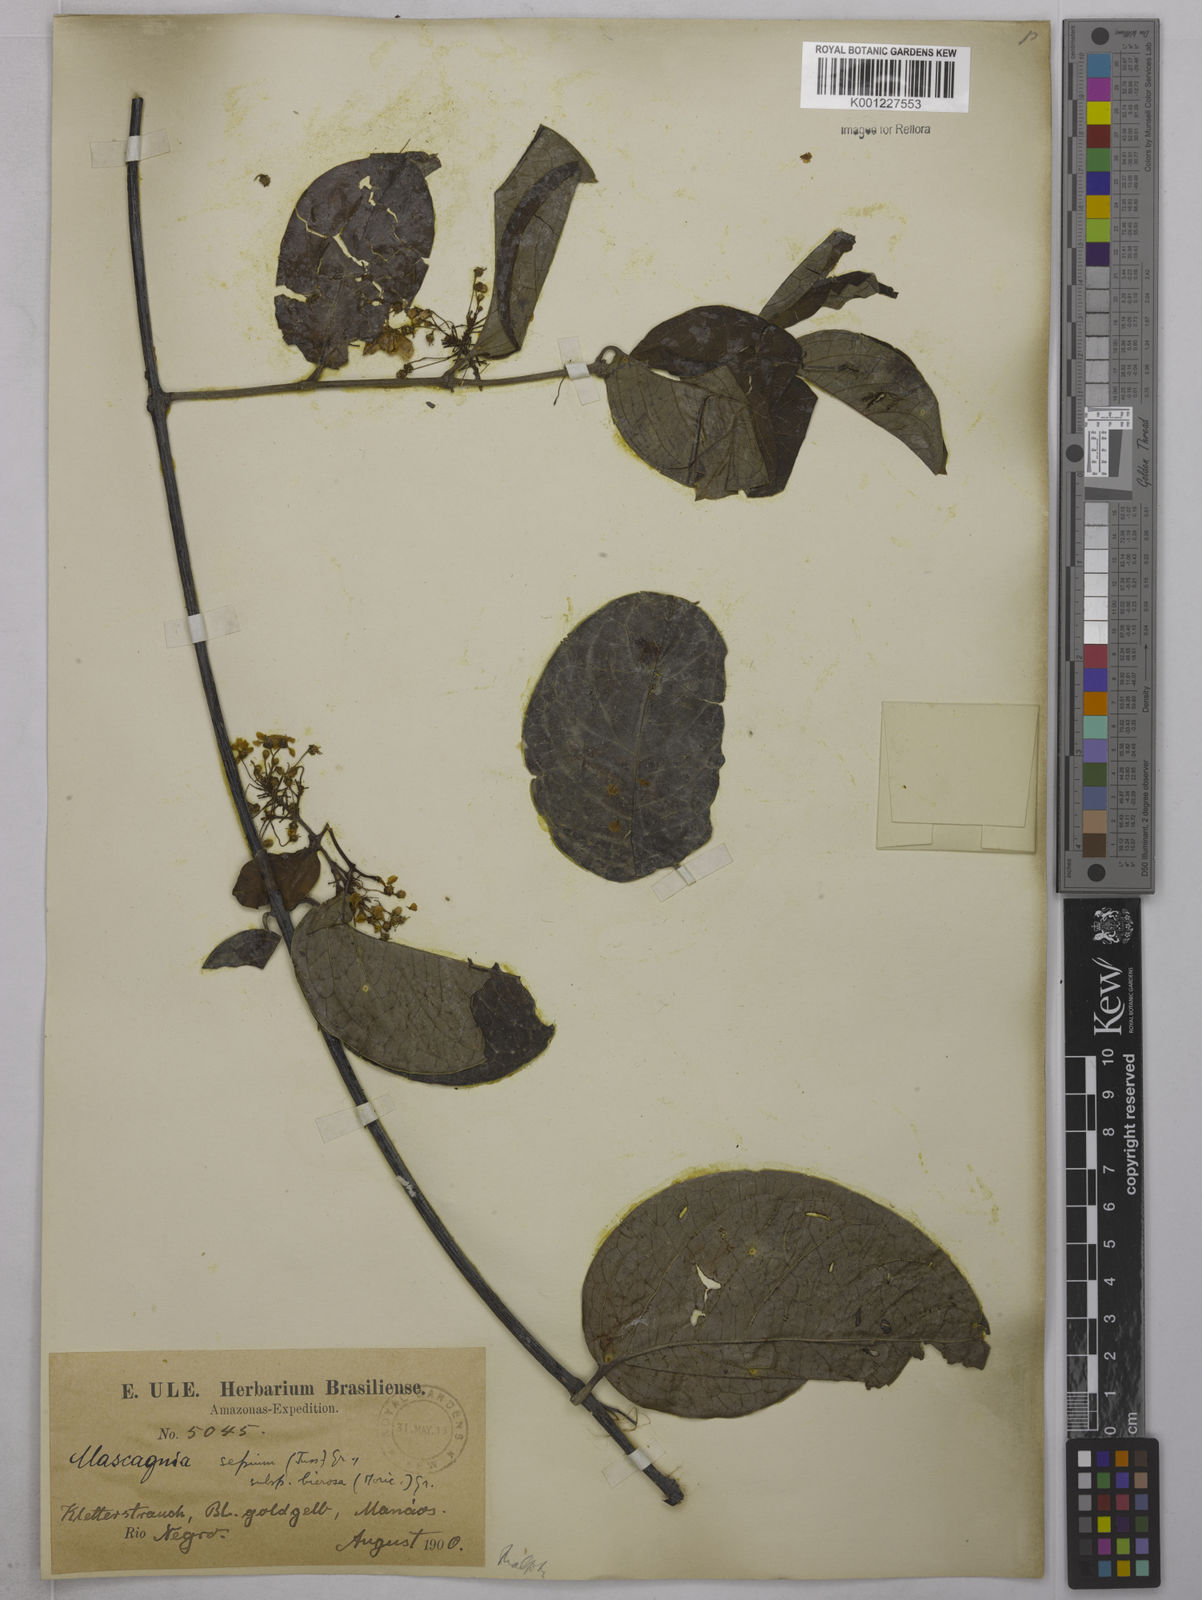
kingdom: Plantae
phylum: Tracheophyta
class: Magnoliopsida
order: Malpighiales
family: Malpighiaceae
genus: Mascagnia
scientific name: Mascagnia sepium
